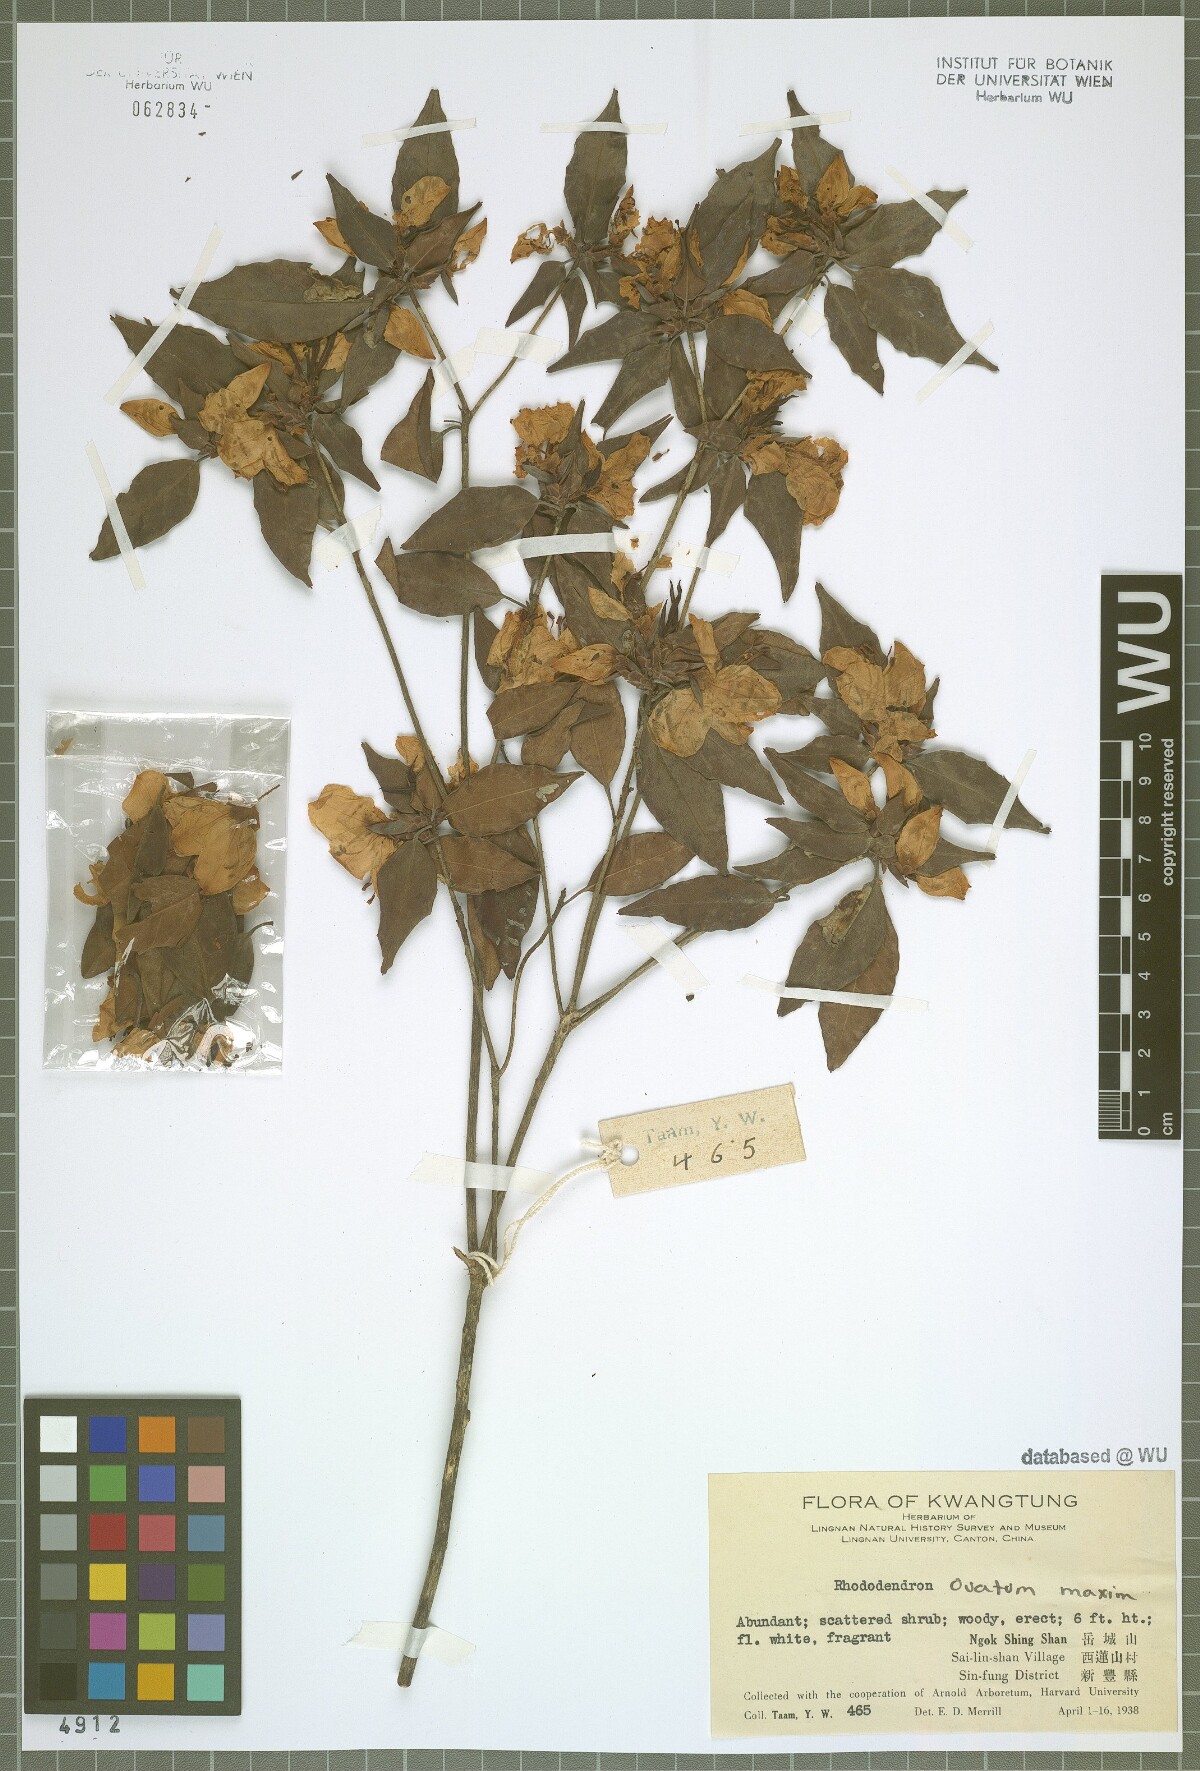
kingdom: Plantae
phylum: Tracheophyta
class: Magnoliopsida
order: Ericales
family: Ericaceae
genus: Rhododendron
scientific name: Rhododendron ovatum
